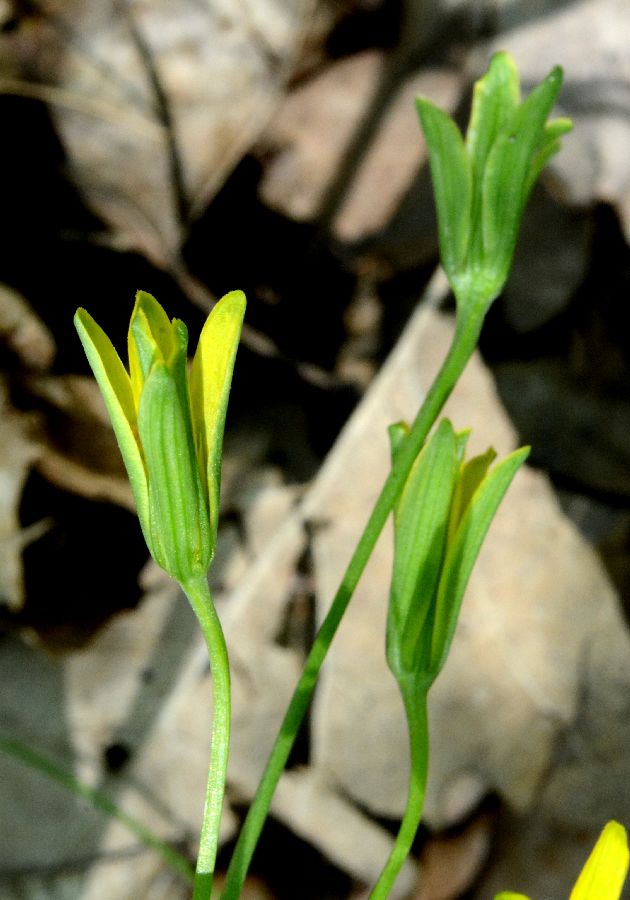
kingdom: Plantae
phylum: Tracheophyta
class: Liliopsida
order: Liliales
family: Liliaceae
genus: Gagea
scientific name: Gagea lutea
